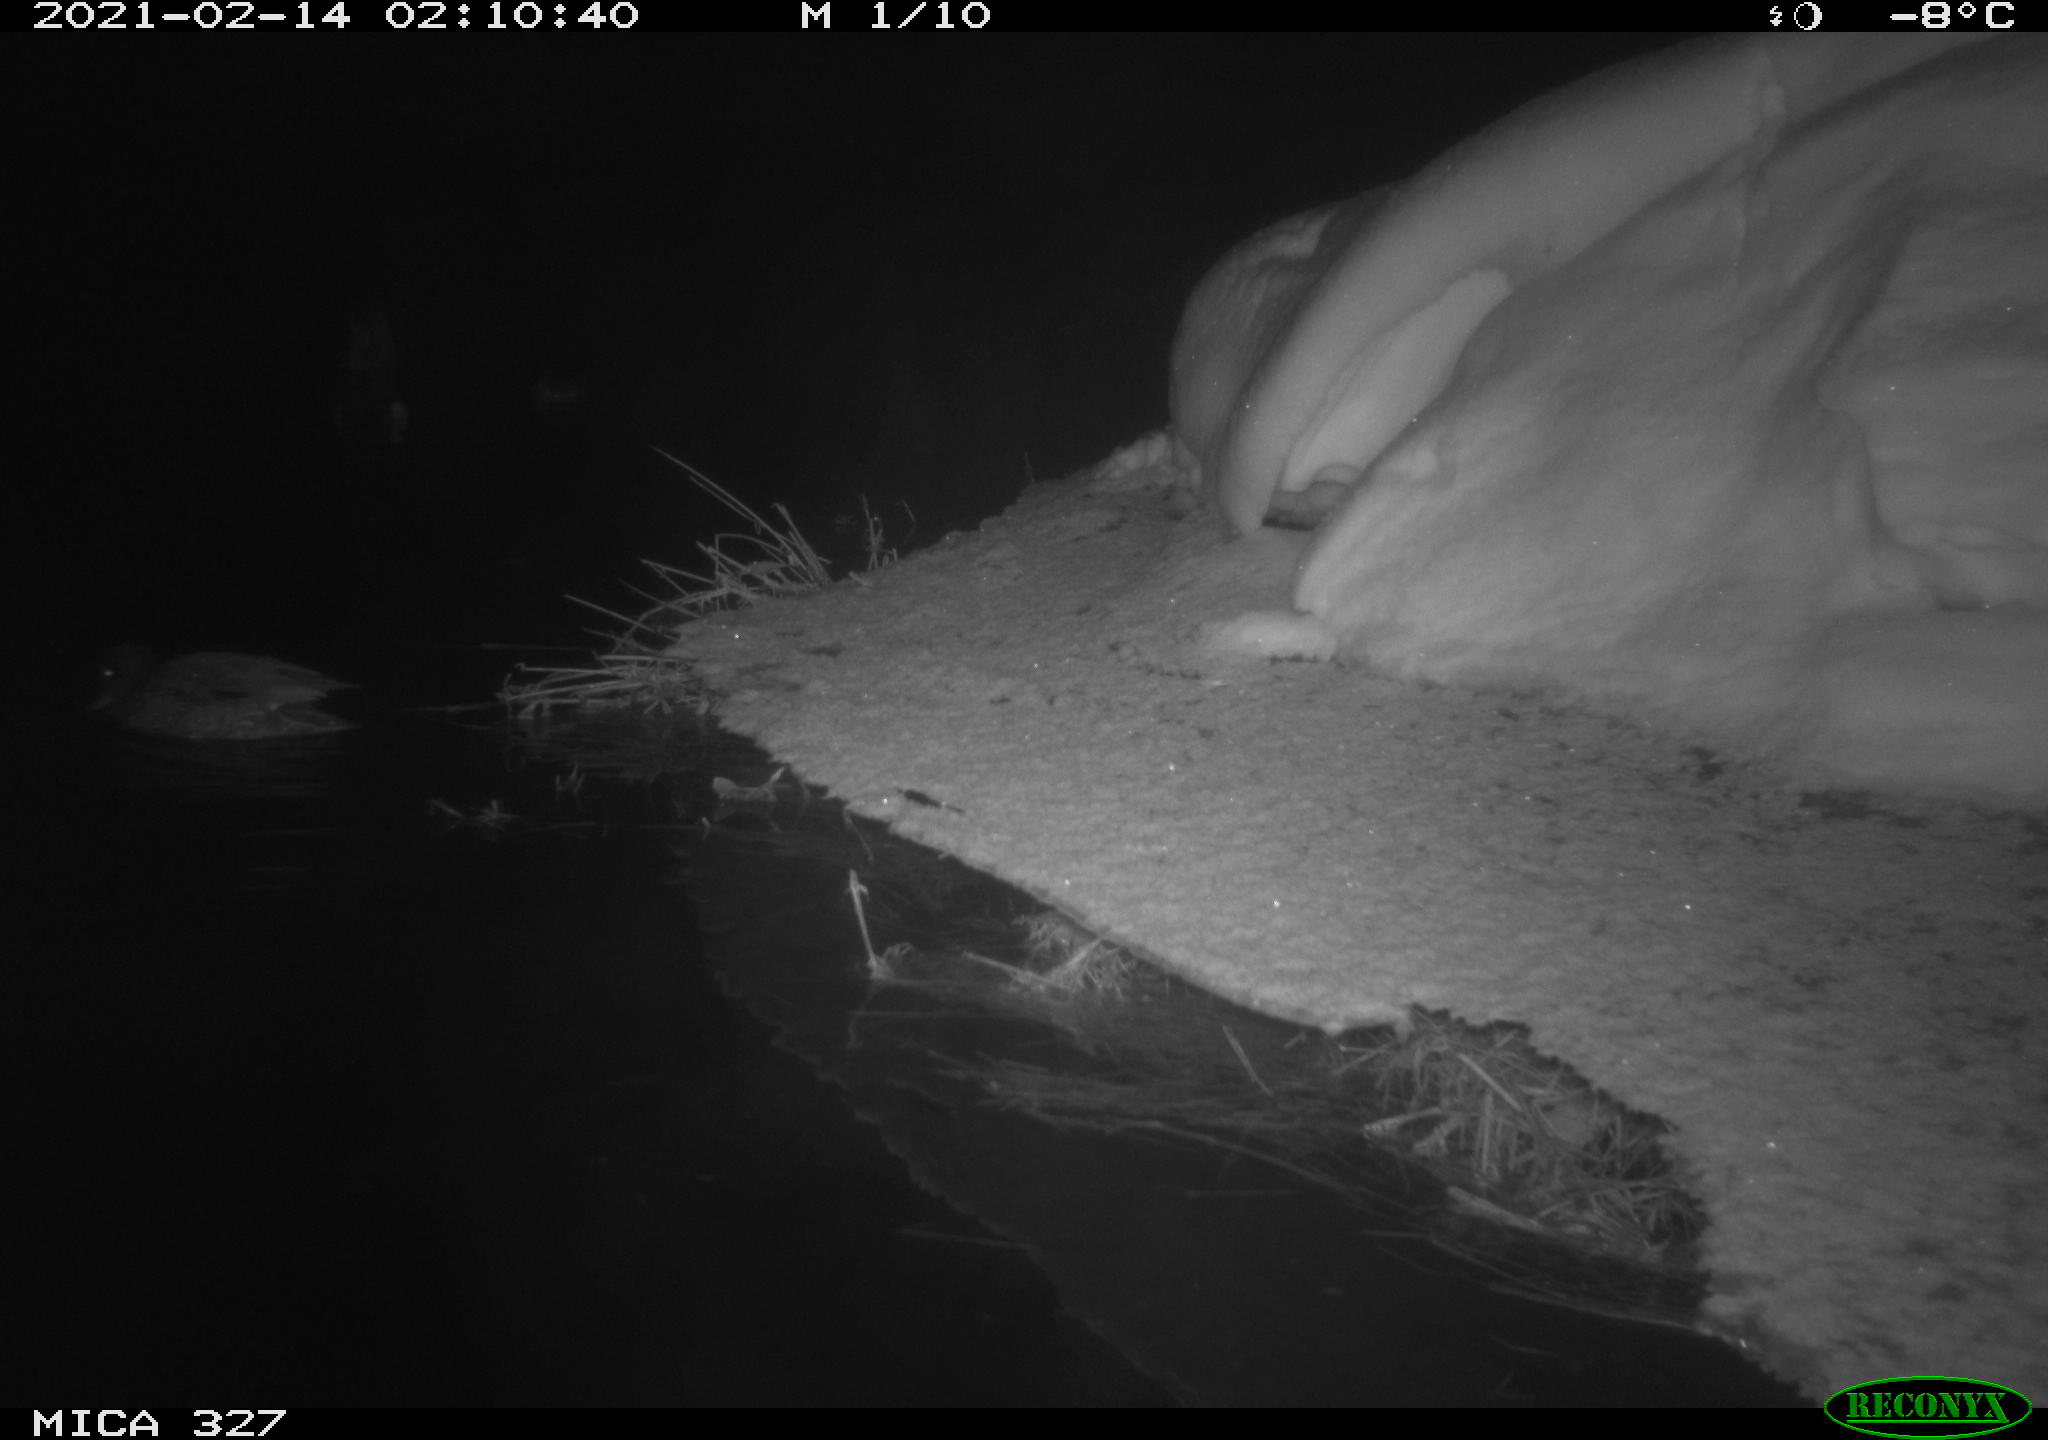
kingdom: Animalia
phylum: Chordata
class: Aves
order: Anseriformes
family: Anatidae
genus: Anas
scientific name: Anas
